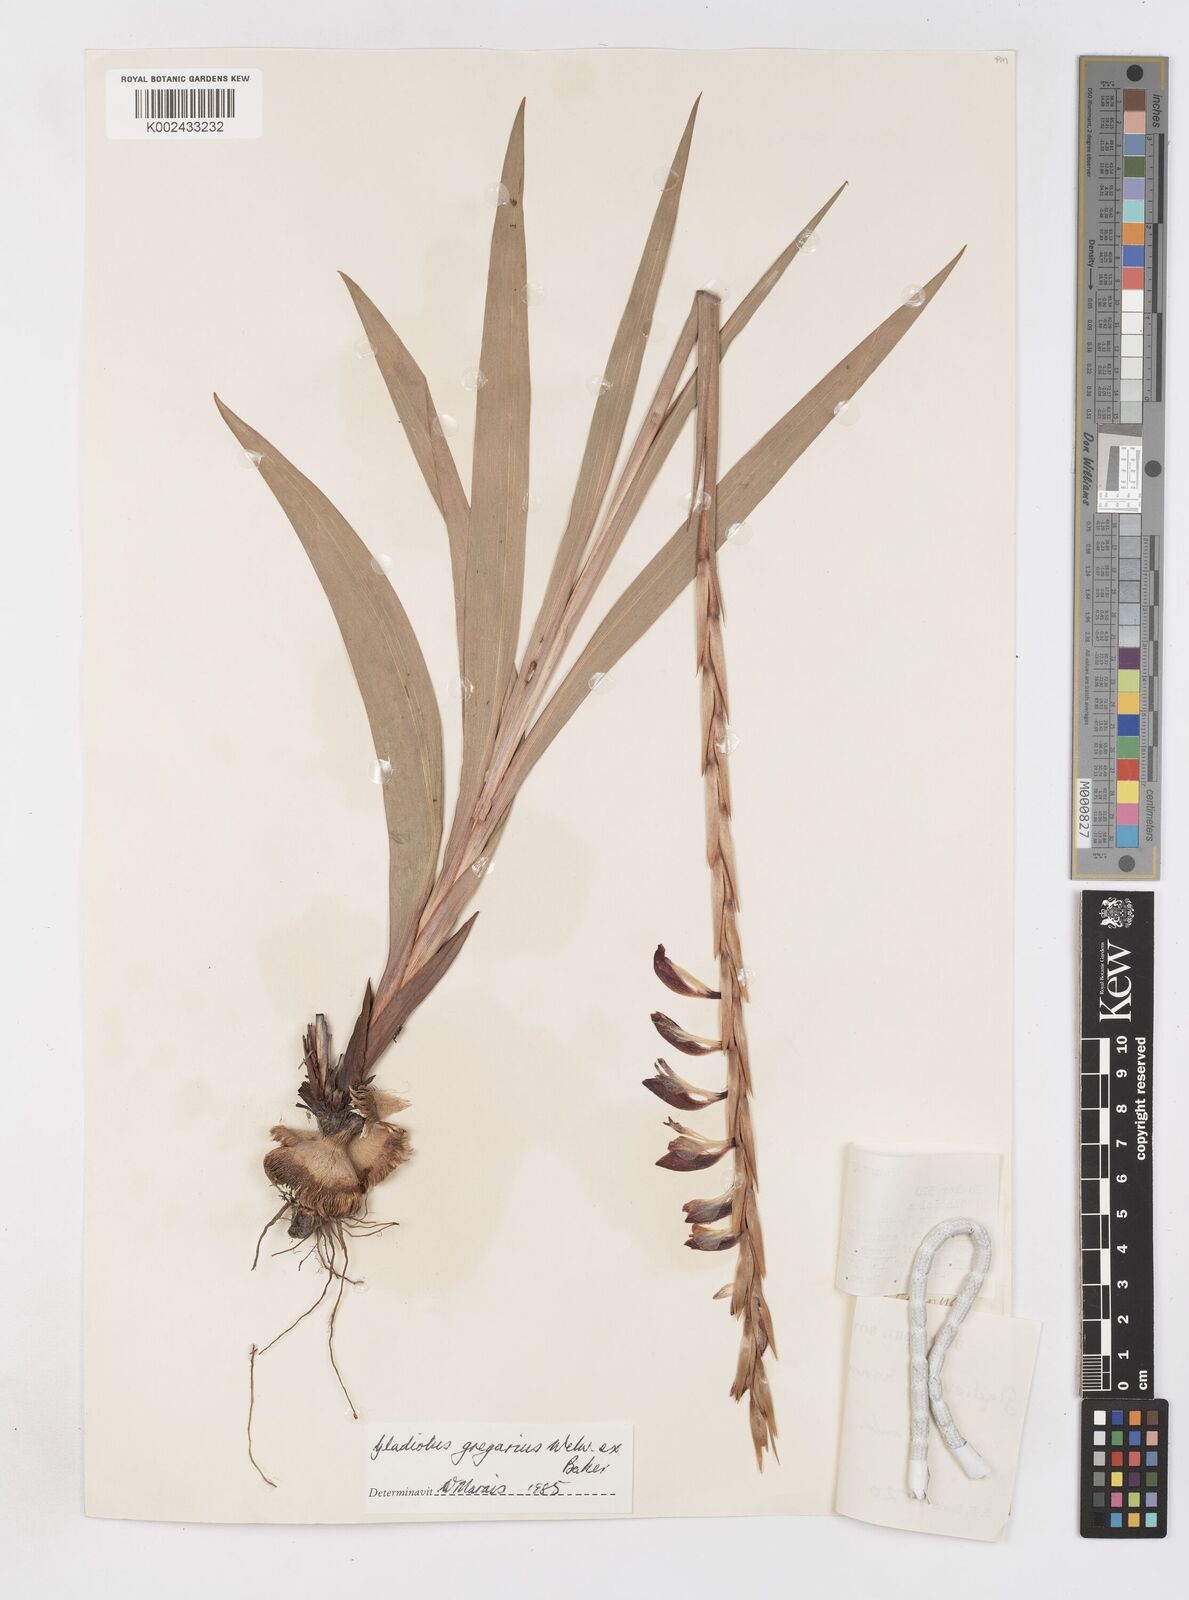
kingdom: Plantae
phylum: Tracheophyta
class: Liliopsida
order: Asparagales
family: Iridaceae
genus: Gladiolus
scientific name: Gladiolus gregarius
